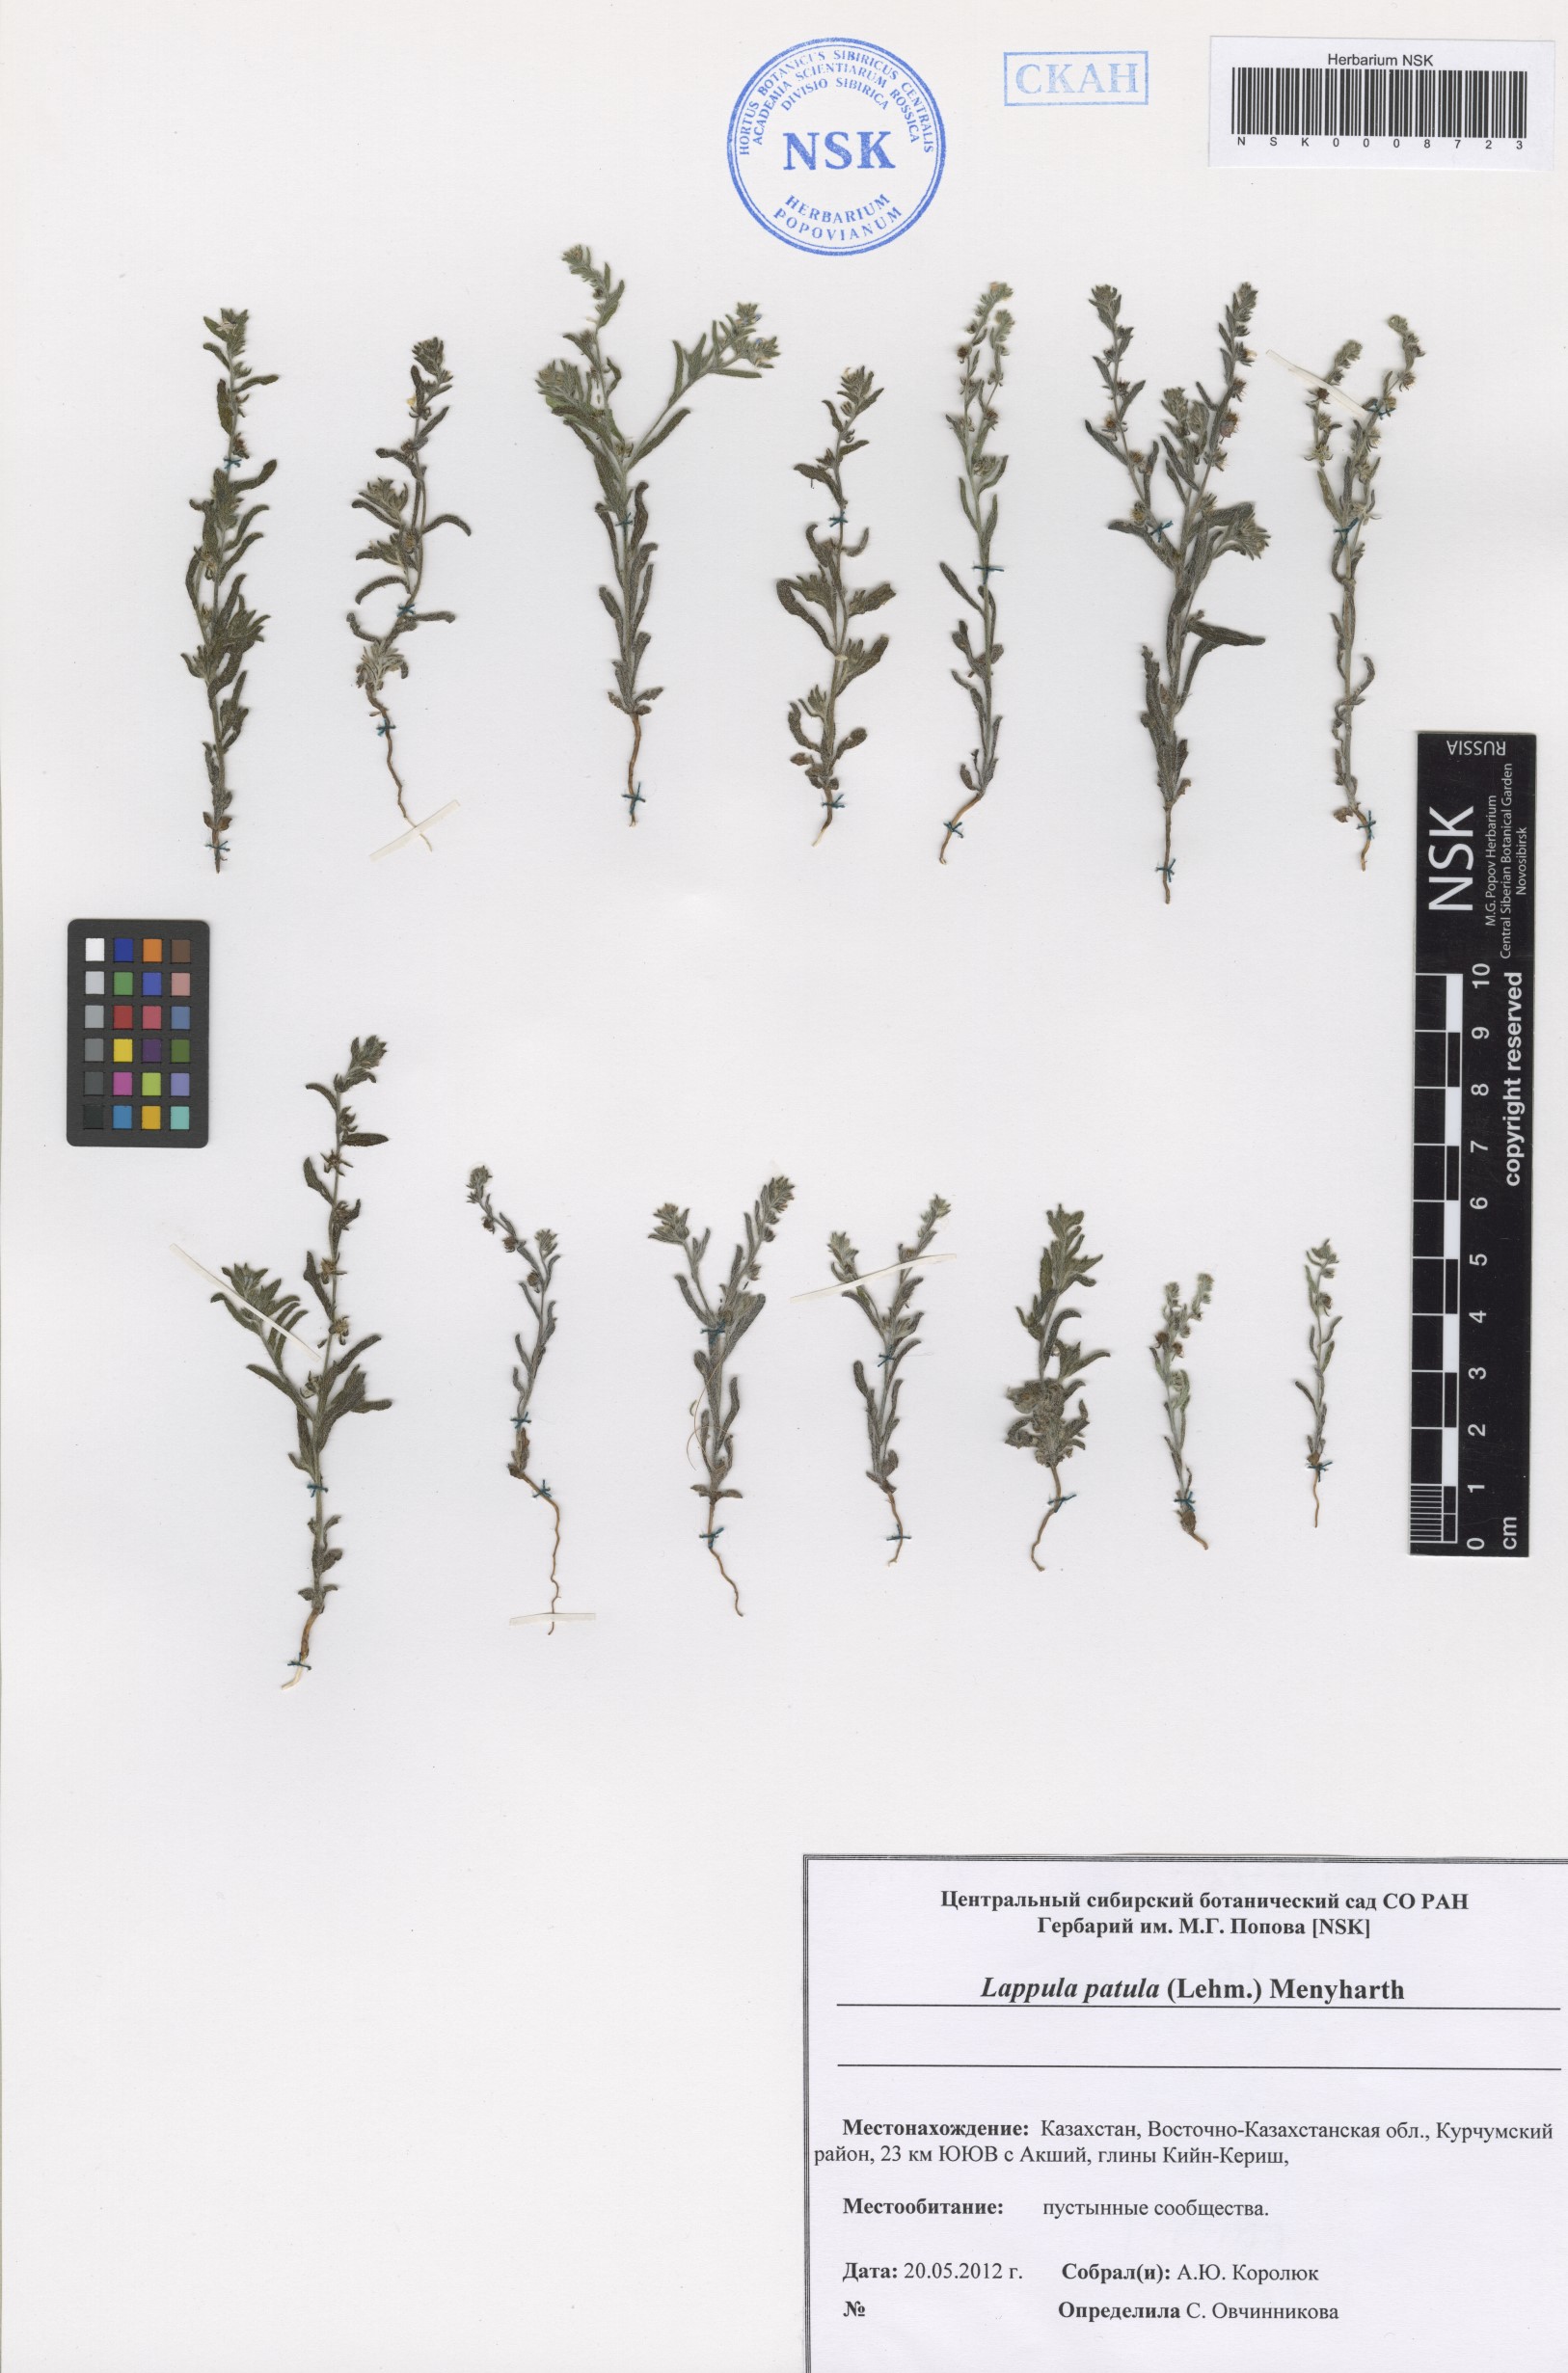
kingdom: Plantae
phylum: Tracheophyta
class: Magnoliopsida
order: Boraginales
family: Boraginaceae
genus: Lappula
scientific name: Lappula patula
